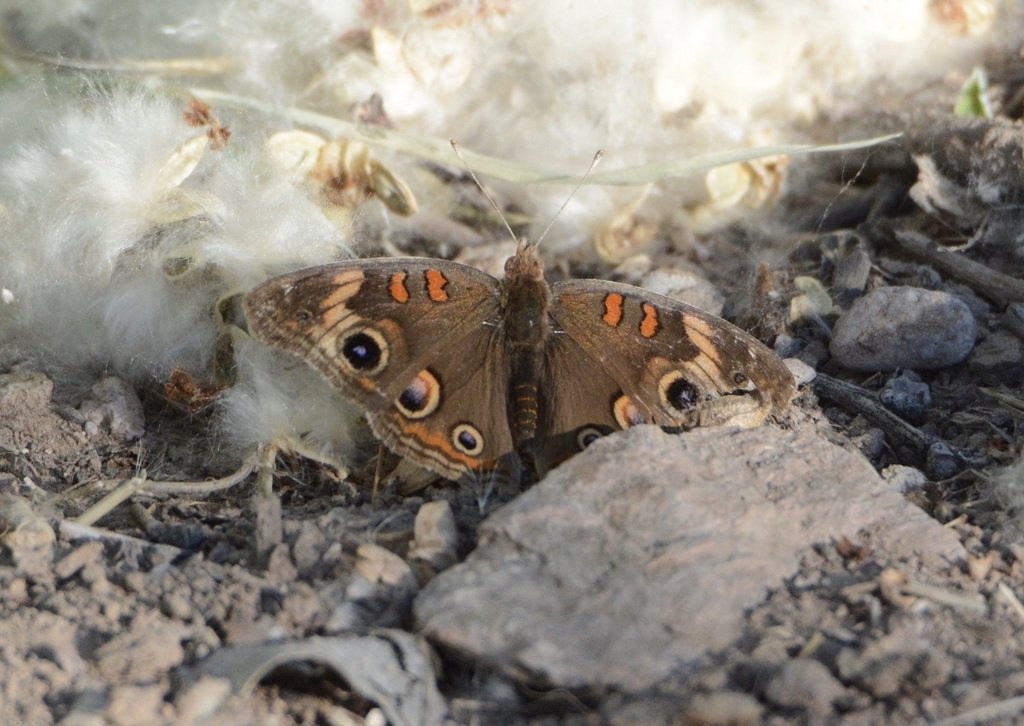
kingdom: Animalia
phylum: Arthropoda
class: Insecta
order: Lepidoptera
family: Nymphalidae
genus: Junonia
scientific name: Junonia coenia
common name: Common Buckeye
